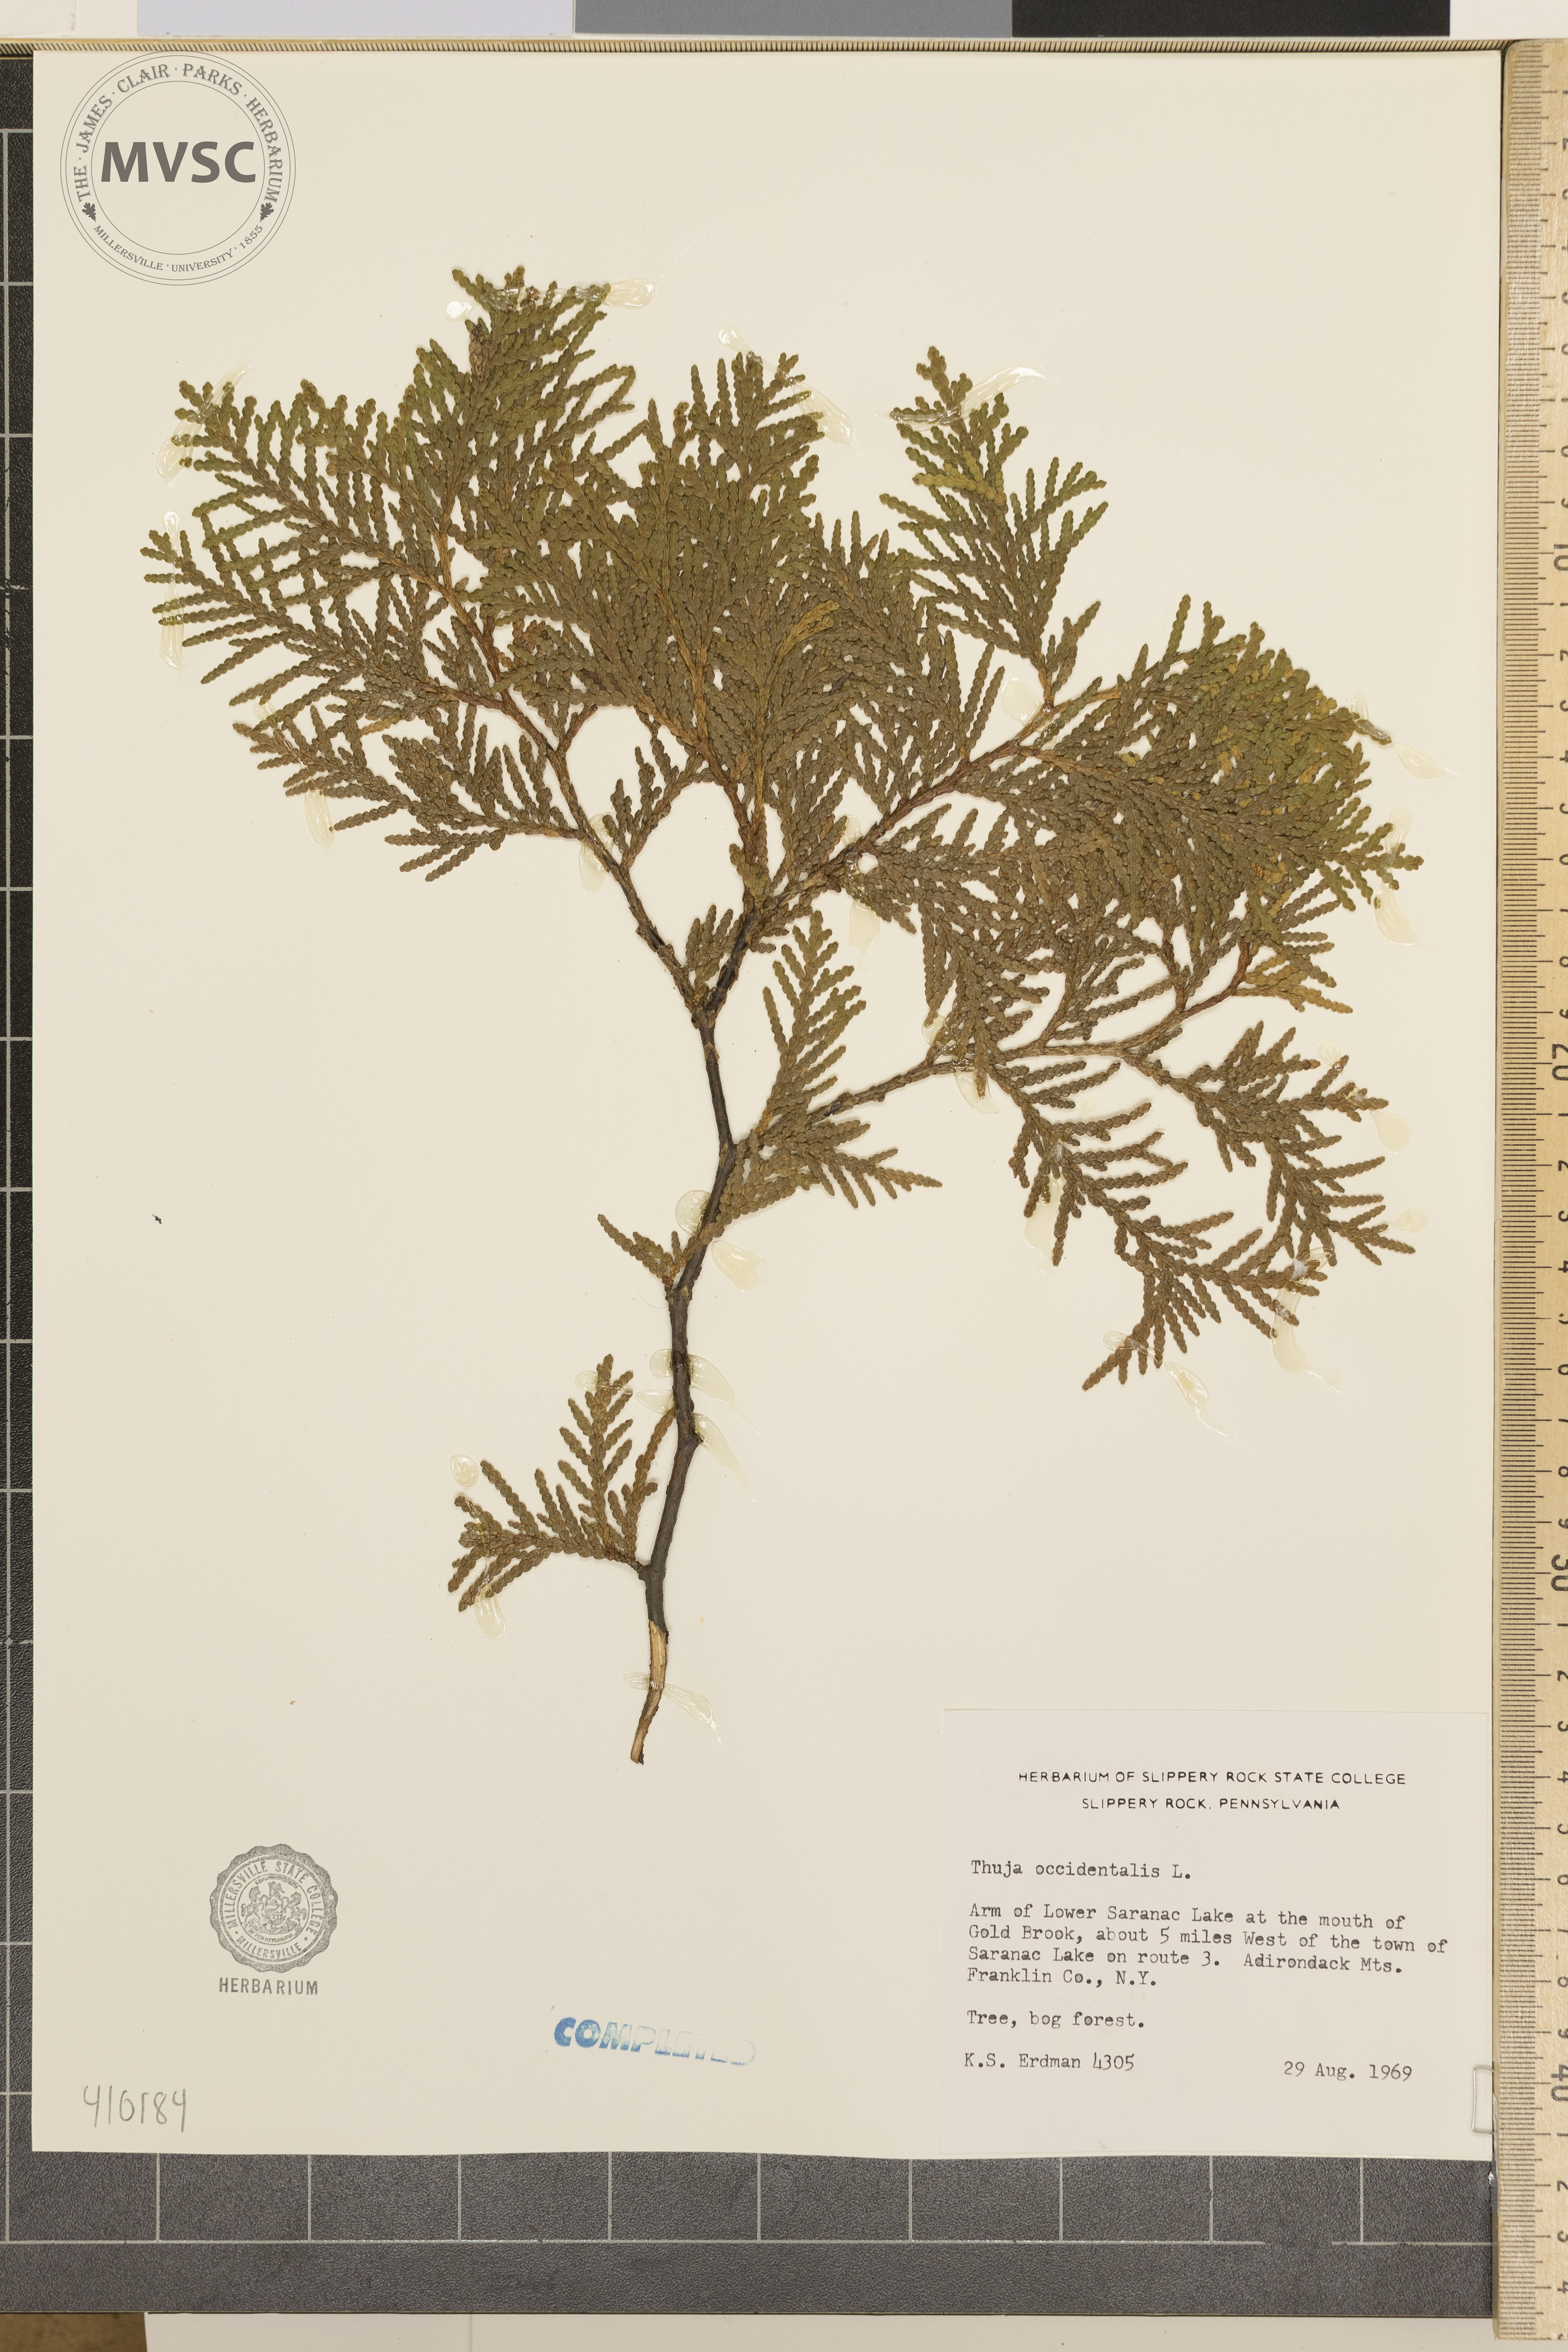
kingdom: Plantae
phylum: Tracheophyta
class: Pinopsida
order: Pinales
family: Cupressaceae
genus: Thuja
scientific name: Thuja occidentalis
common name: Northern white-cedar
